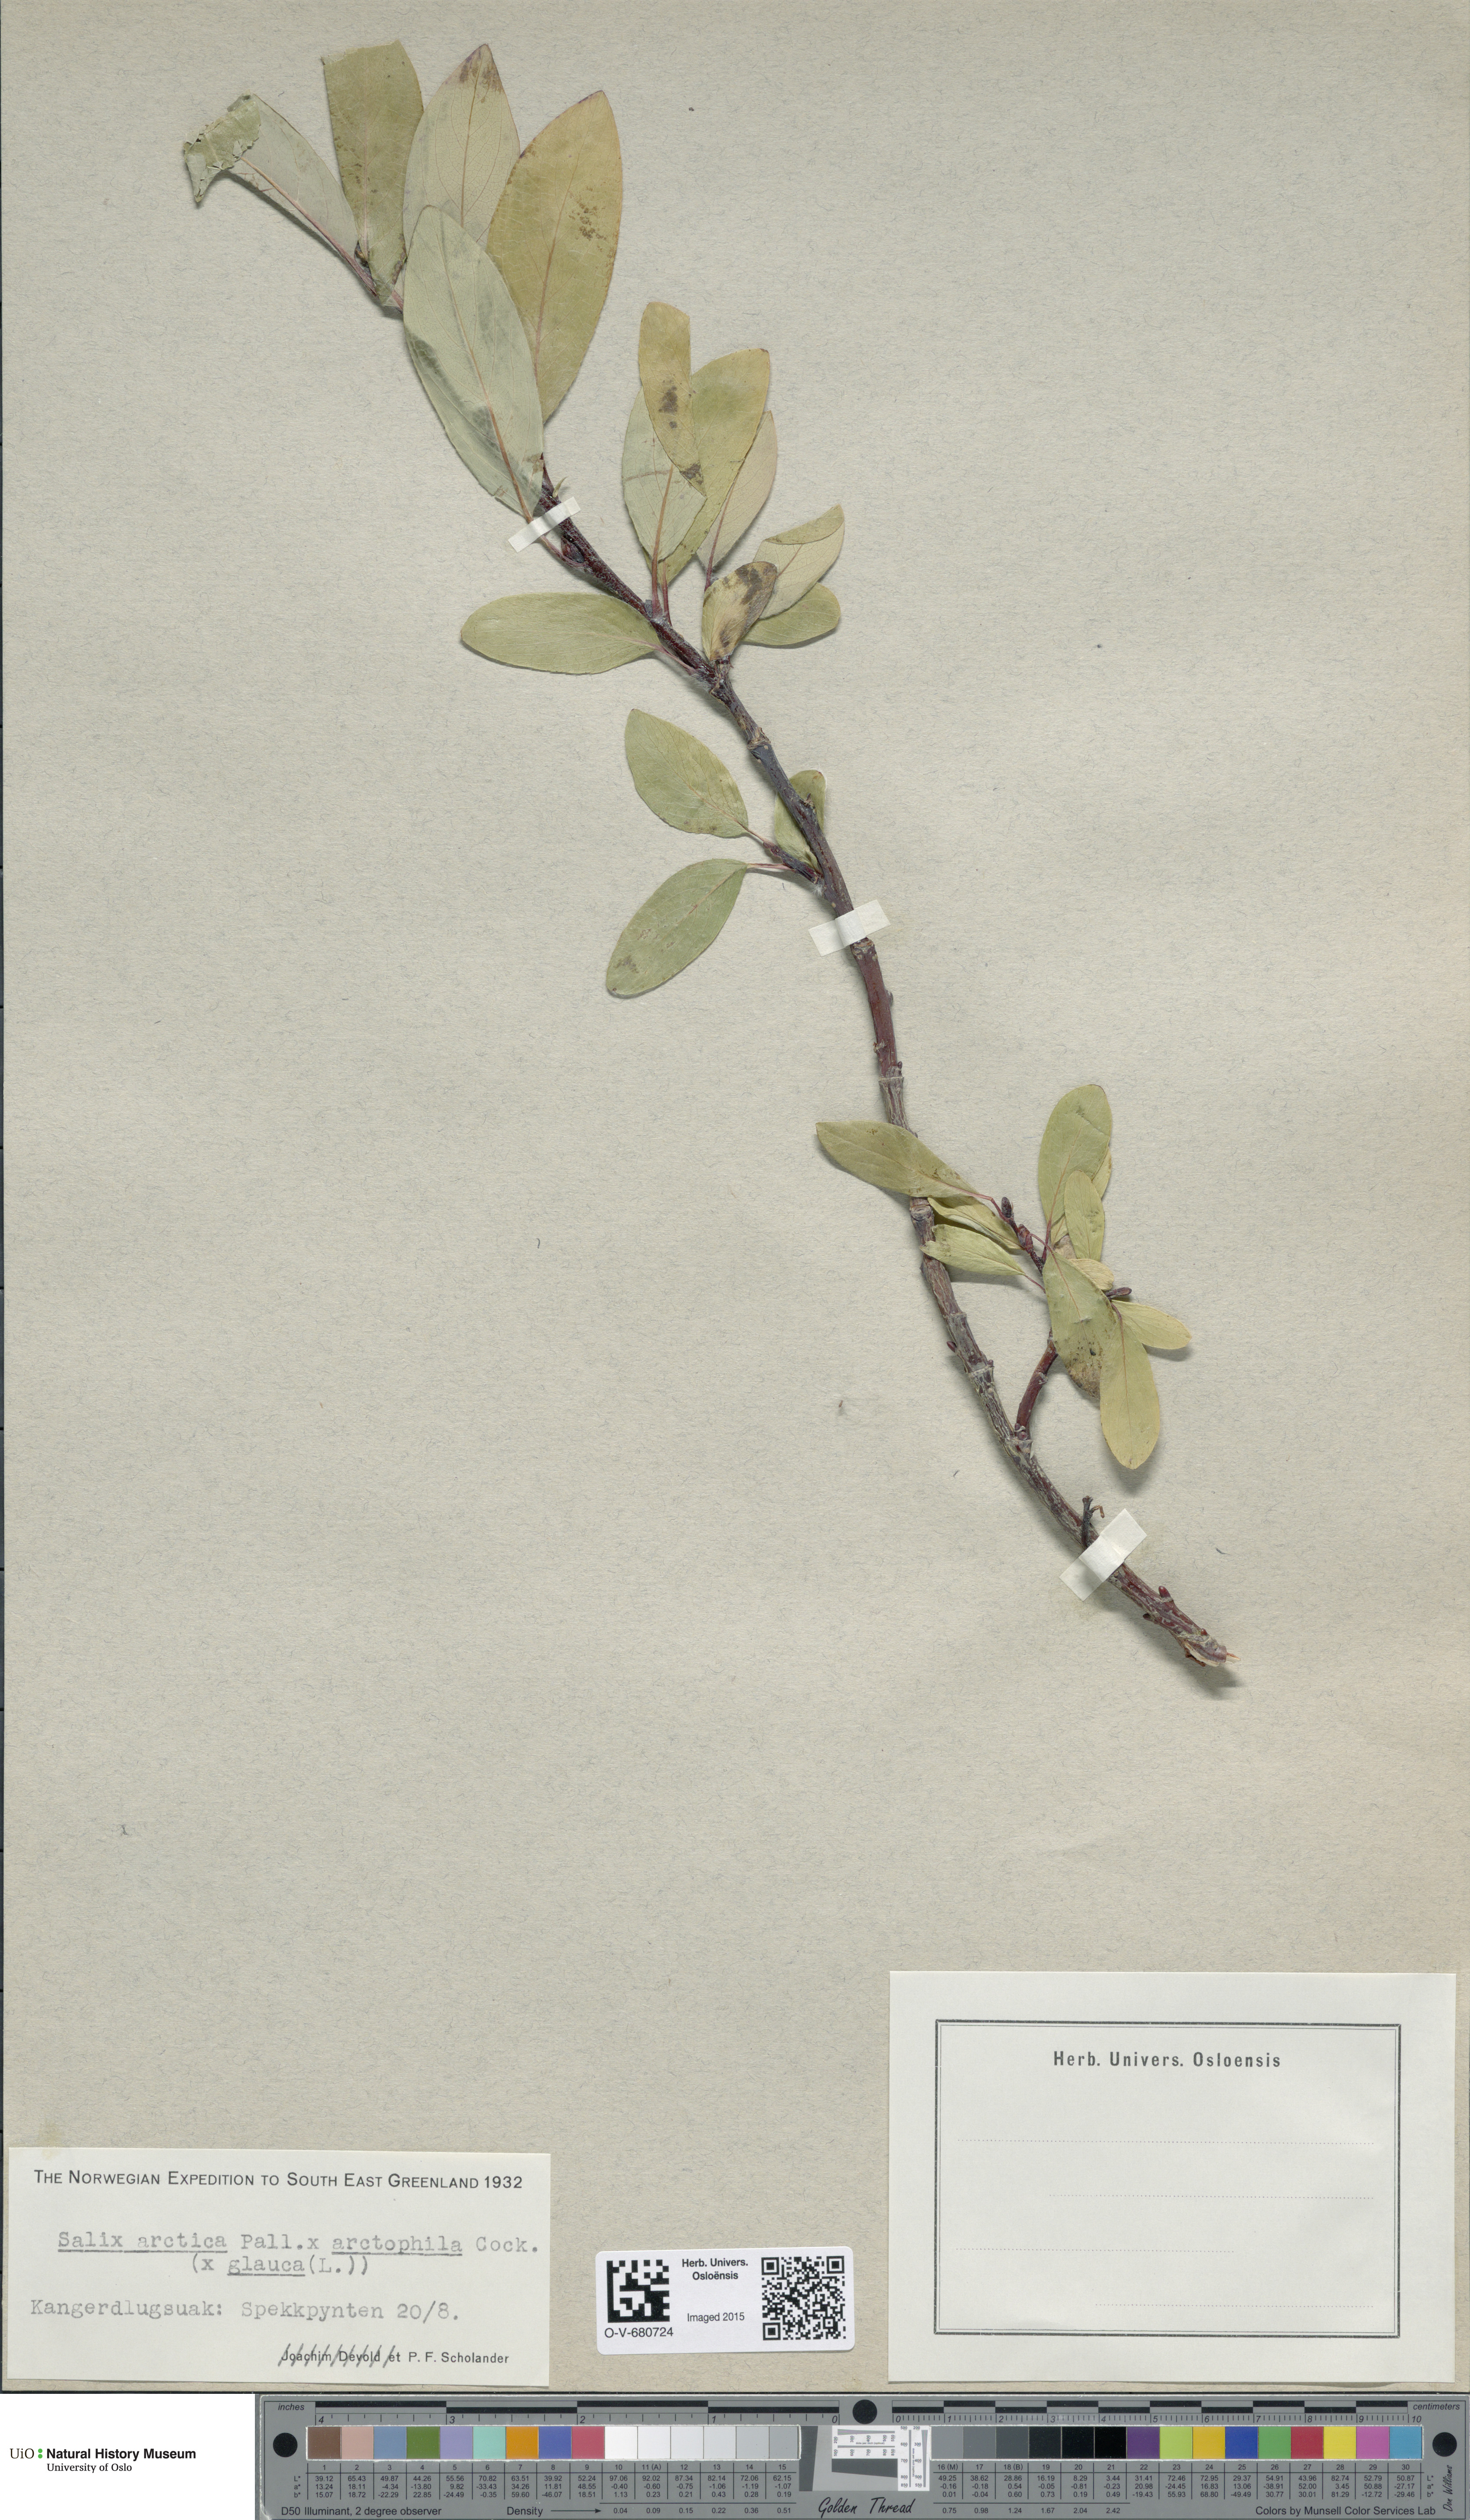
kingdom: Plantae
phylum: Tracheophyta
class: Magnoliopsida
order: Malpighiales
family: Salicaceae
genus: Salix
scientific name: Salix
